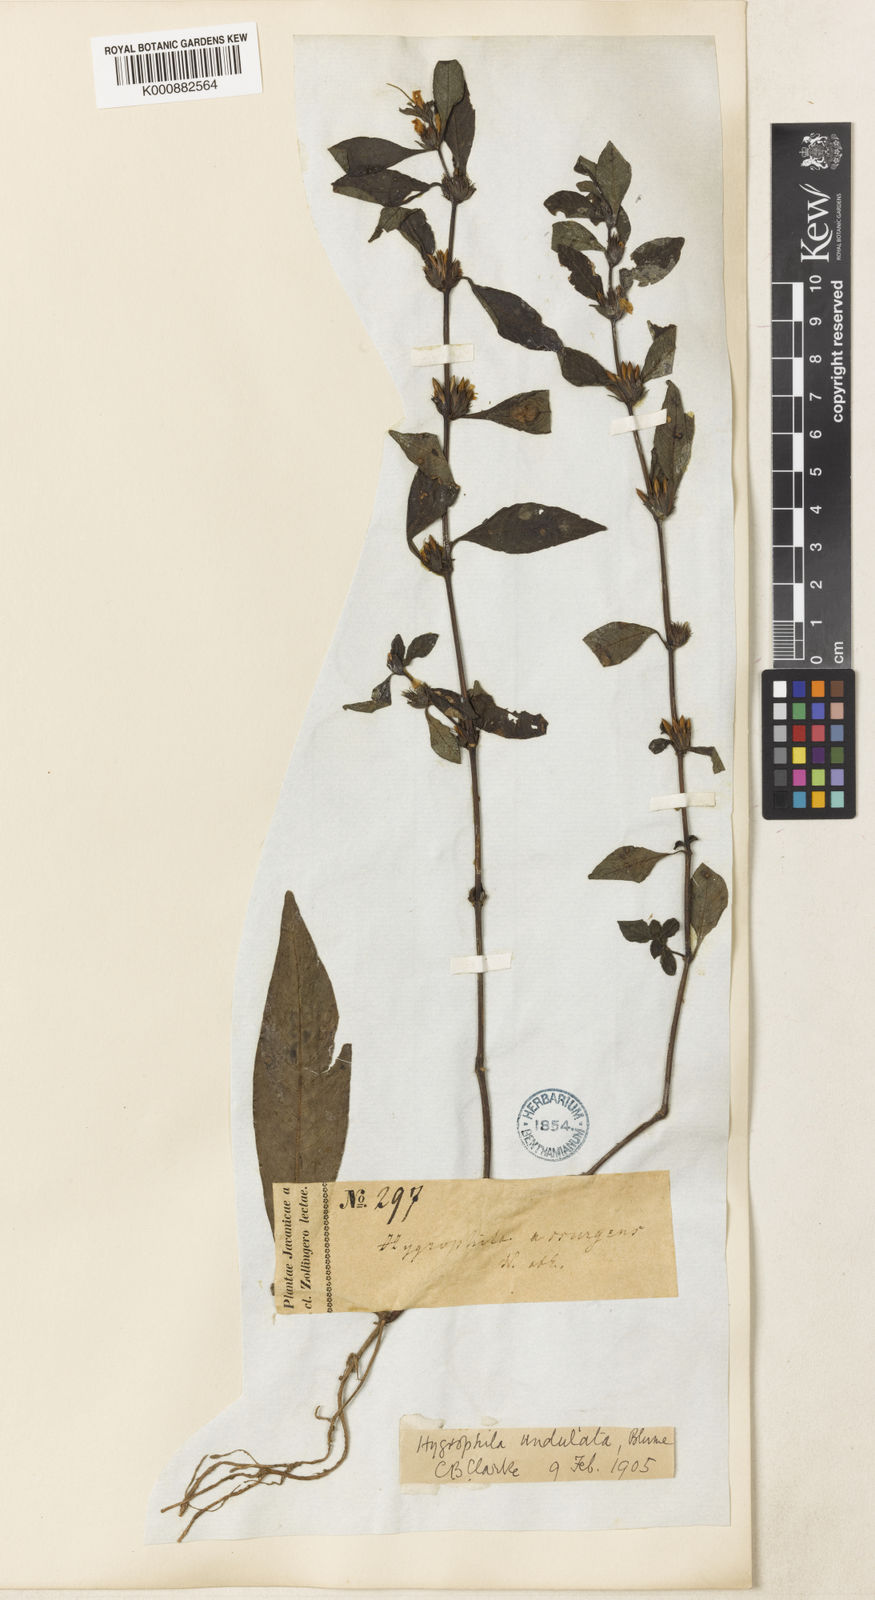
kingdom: Plantae
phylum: Tracheophyta
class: Magnoliopsida
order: Lamiales
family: Acanthaceae
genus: Hygrophila
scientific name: Hygrophila ringens
